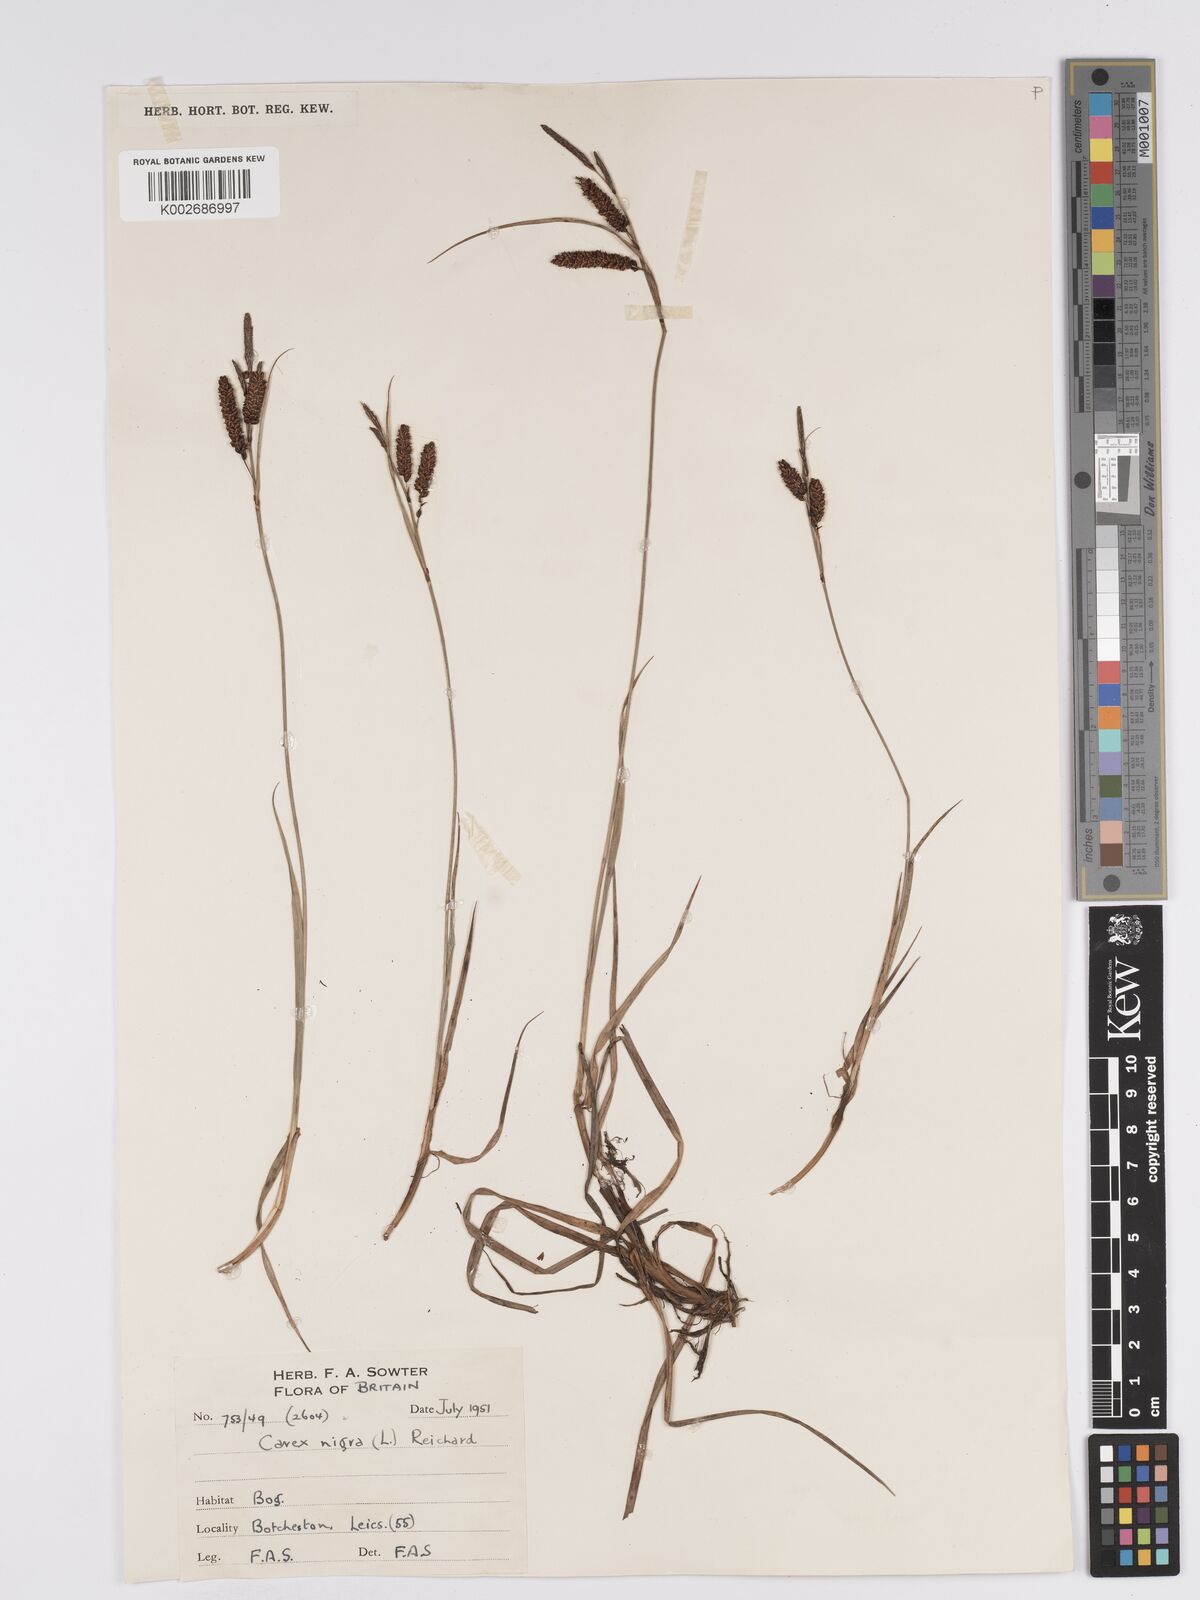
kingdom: Plantae
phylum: Tracheophyta
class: Liliopsida
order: Poales
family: Cyperaceae
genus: Carex
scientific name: Carex nigra
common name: Common sedge
